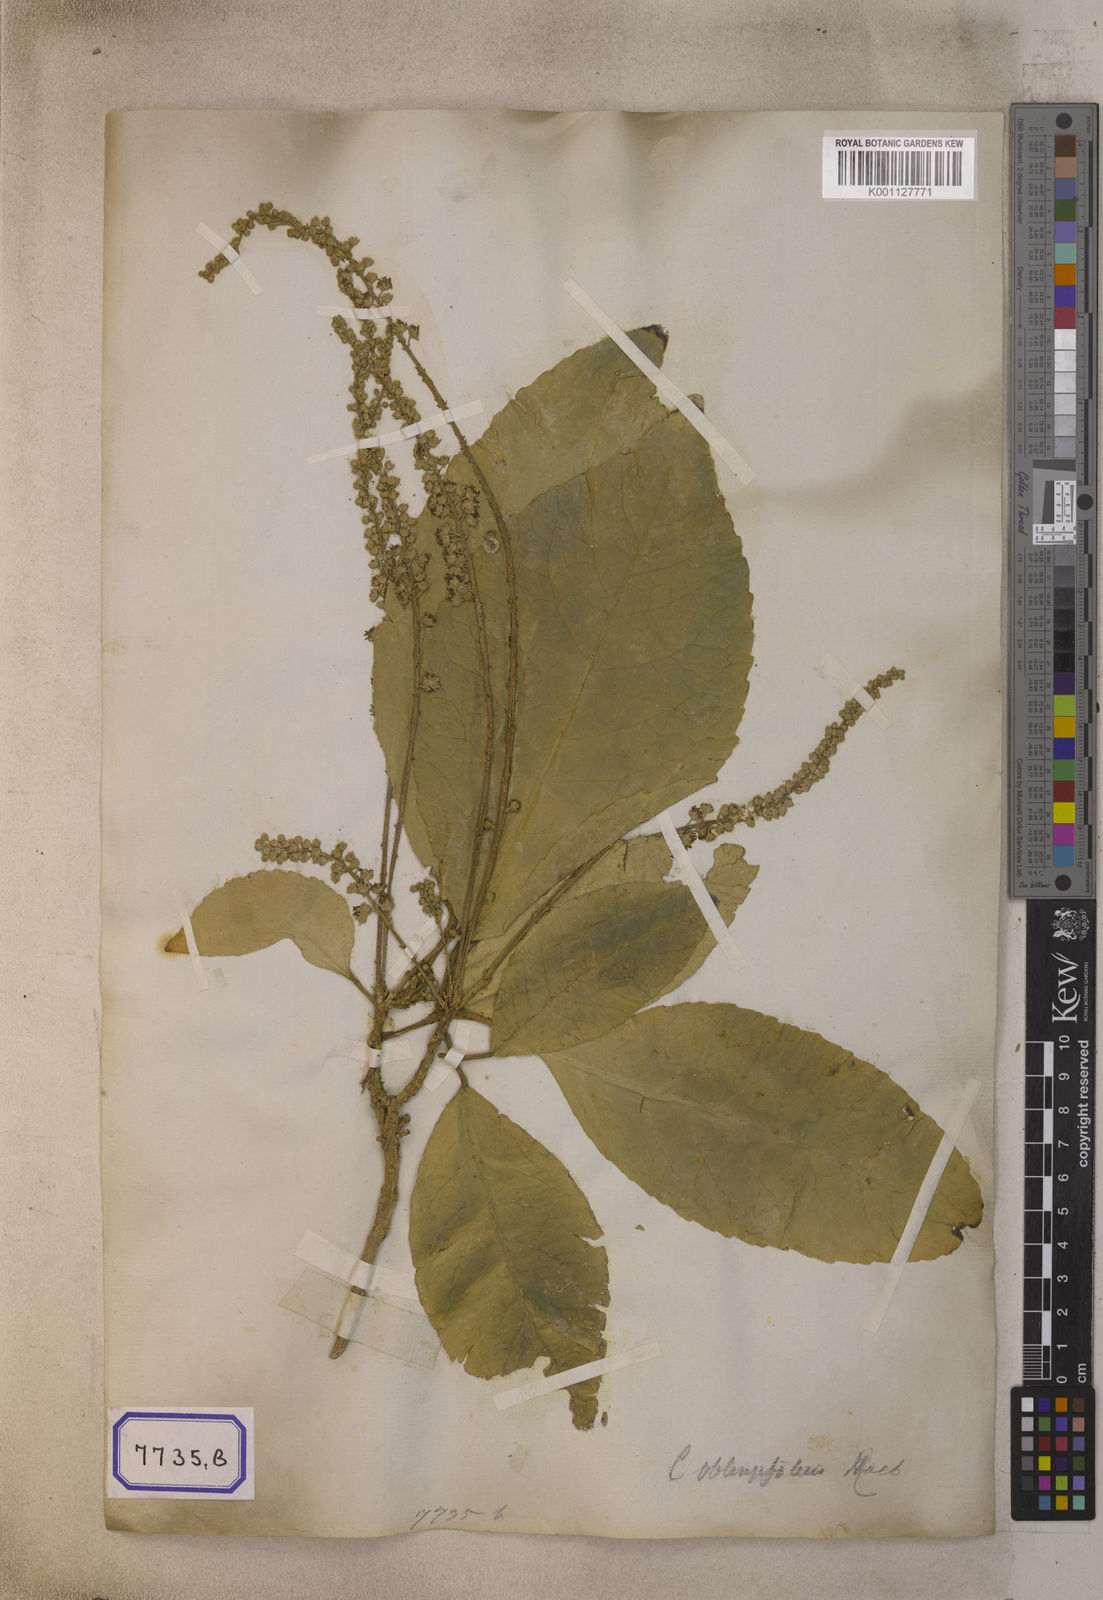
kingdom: Plantae
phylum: Tracheophyta
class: Magnoliopsida
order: Malpighiales
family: Euphorbiaceae
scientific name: Euphorbiaceae
